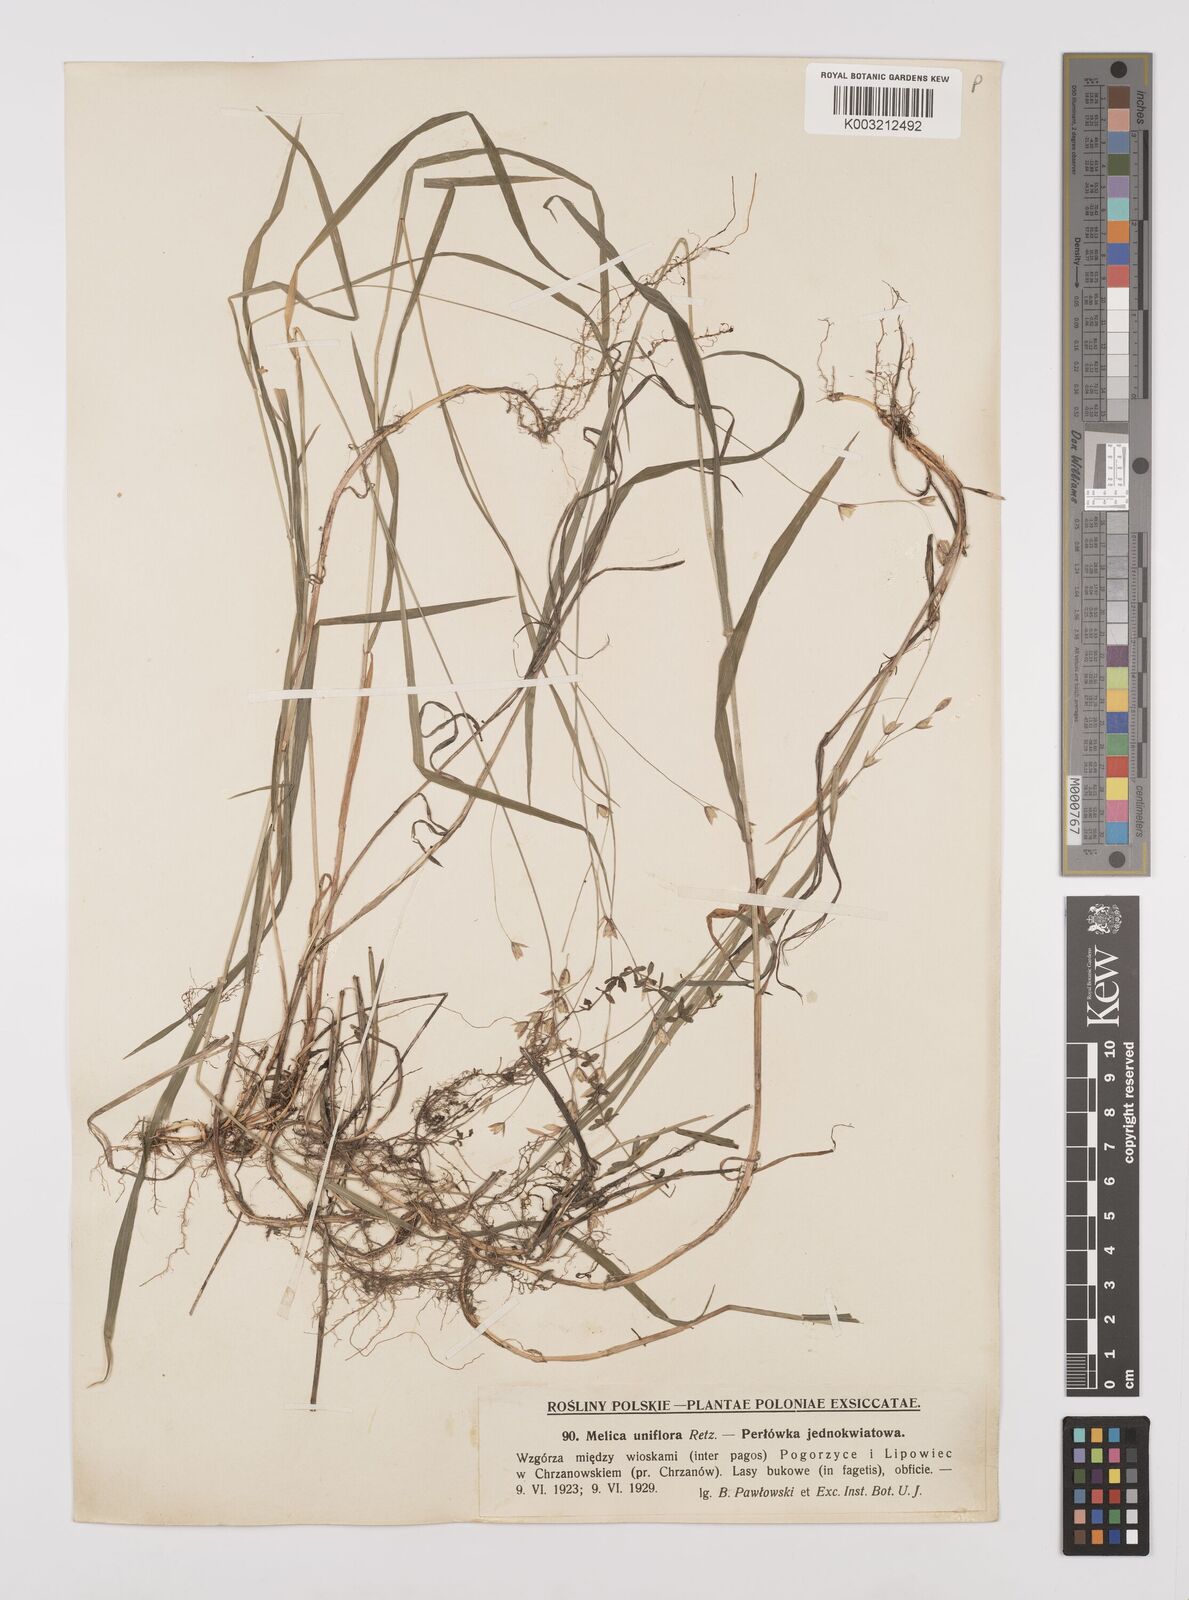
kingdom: Plantae
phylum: Tracheophyta
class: Liliopsida
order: Poales
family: Poaceae
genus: Melica
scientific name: Melica uniflora
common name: Wood melick
